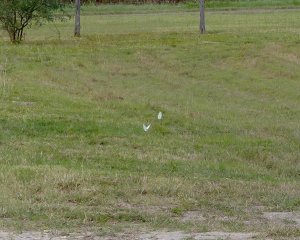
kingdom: Animalia
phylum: Arthropoda
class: Insecta
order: Lepidoptera
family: Pieridae
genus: Ganyra
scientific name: Ganyra josephina
